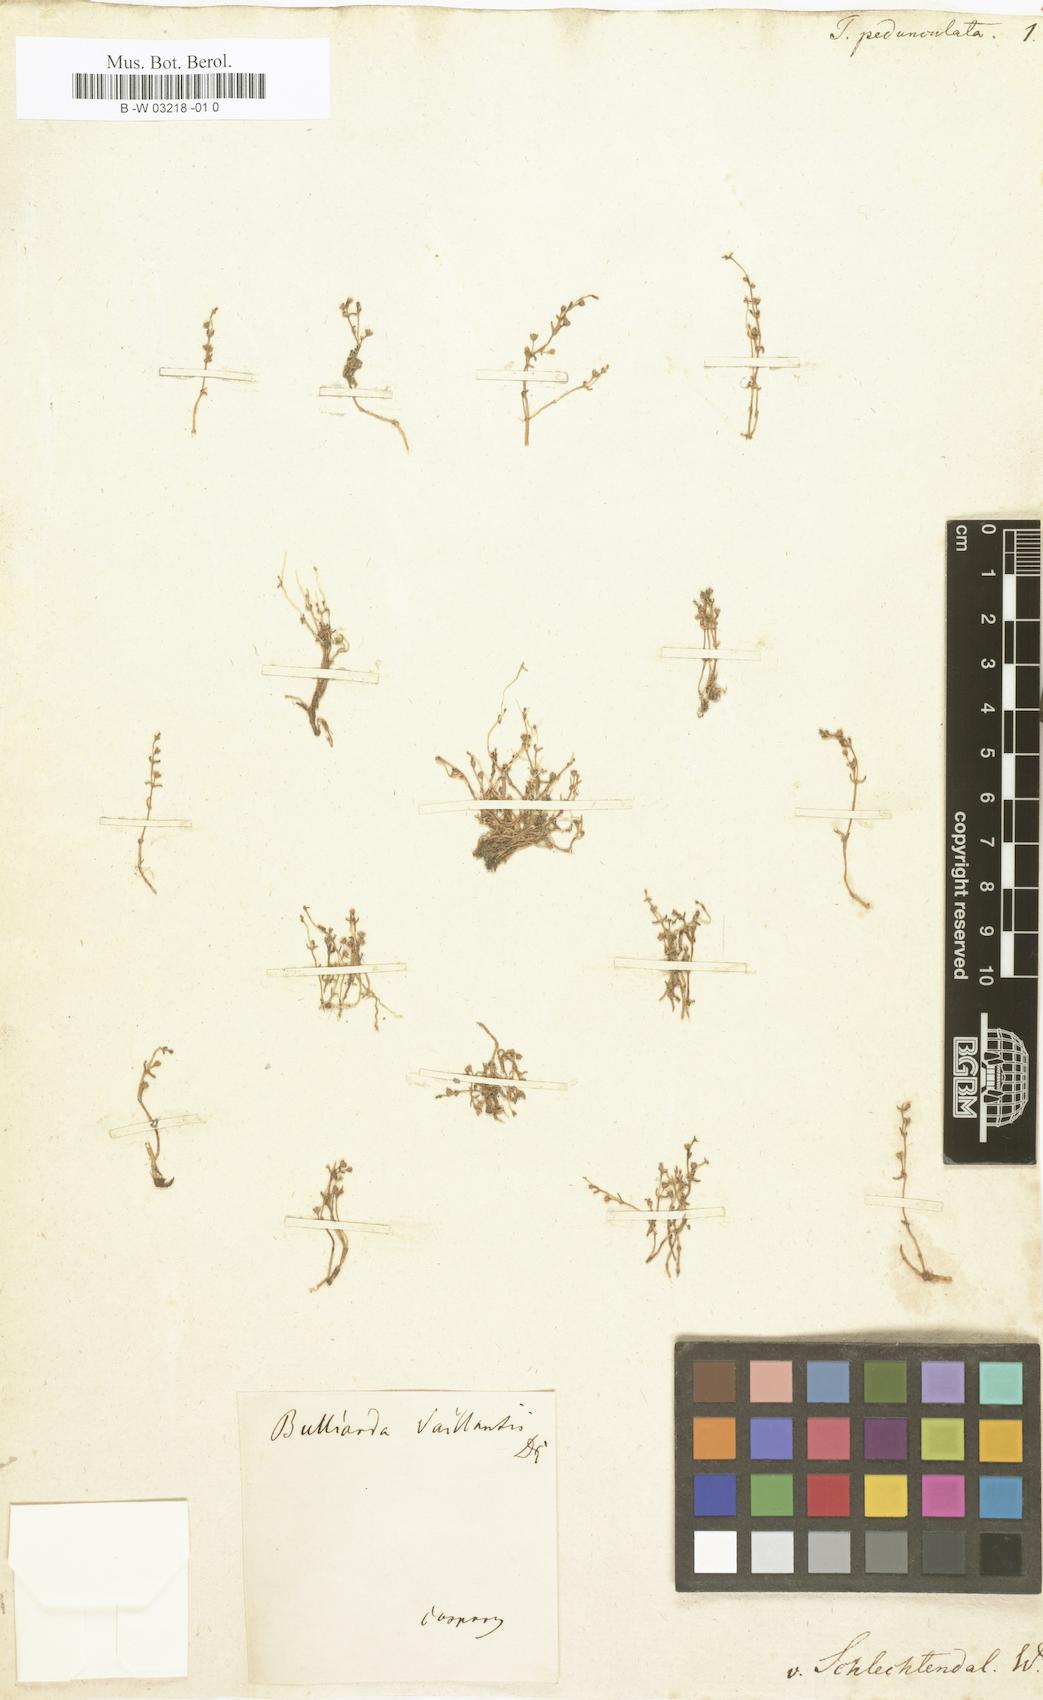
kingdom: Plantae
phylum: Tracheophyta
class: Magnoliopsida
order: Saxifragales
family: Crassulaceae
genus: Crassula
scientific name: Crassula
